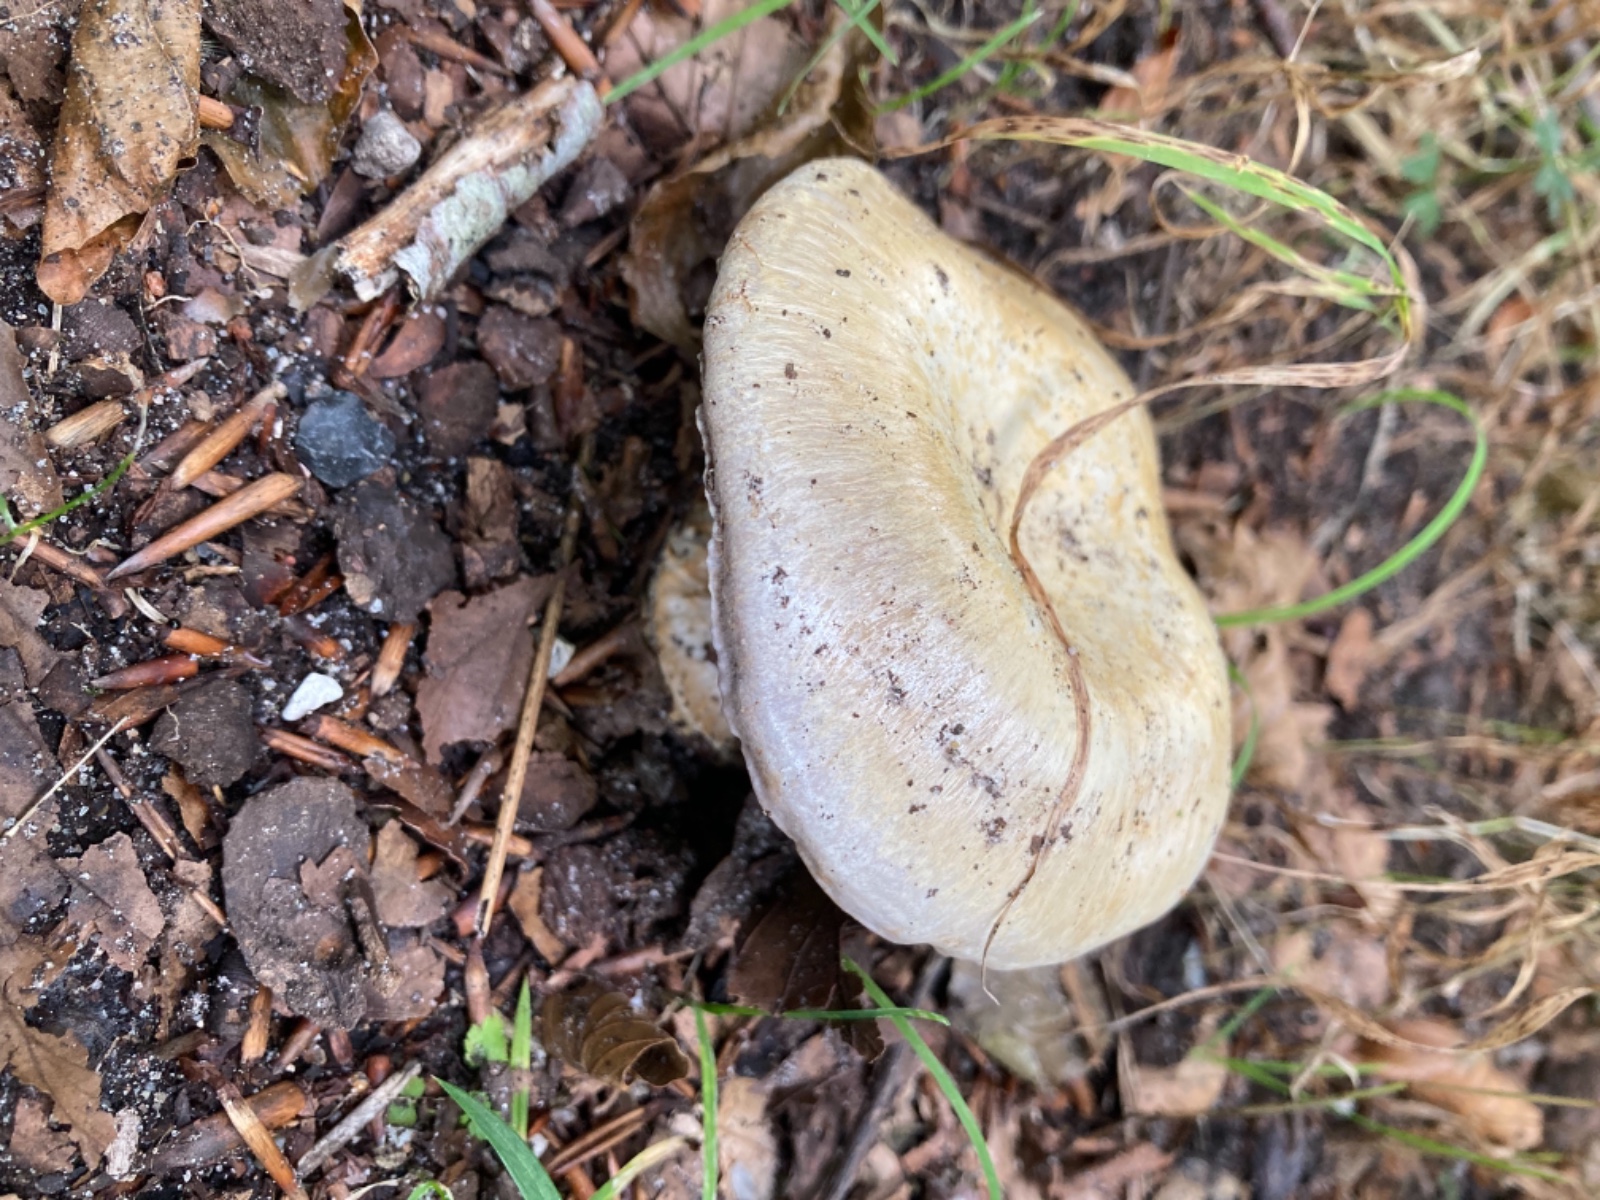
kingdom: Fungi
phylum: Basidiomycota
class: Agaricomycetes
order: Agaricales
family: Cortinariaceae
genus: Cortinarius
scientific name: Cortinarius foetens
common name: stribet slørhat
